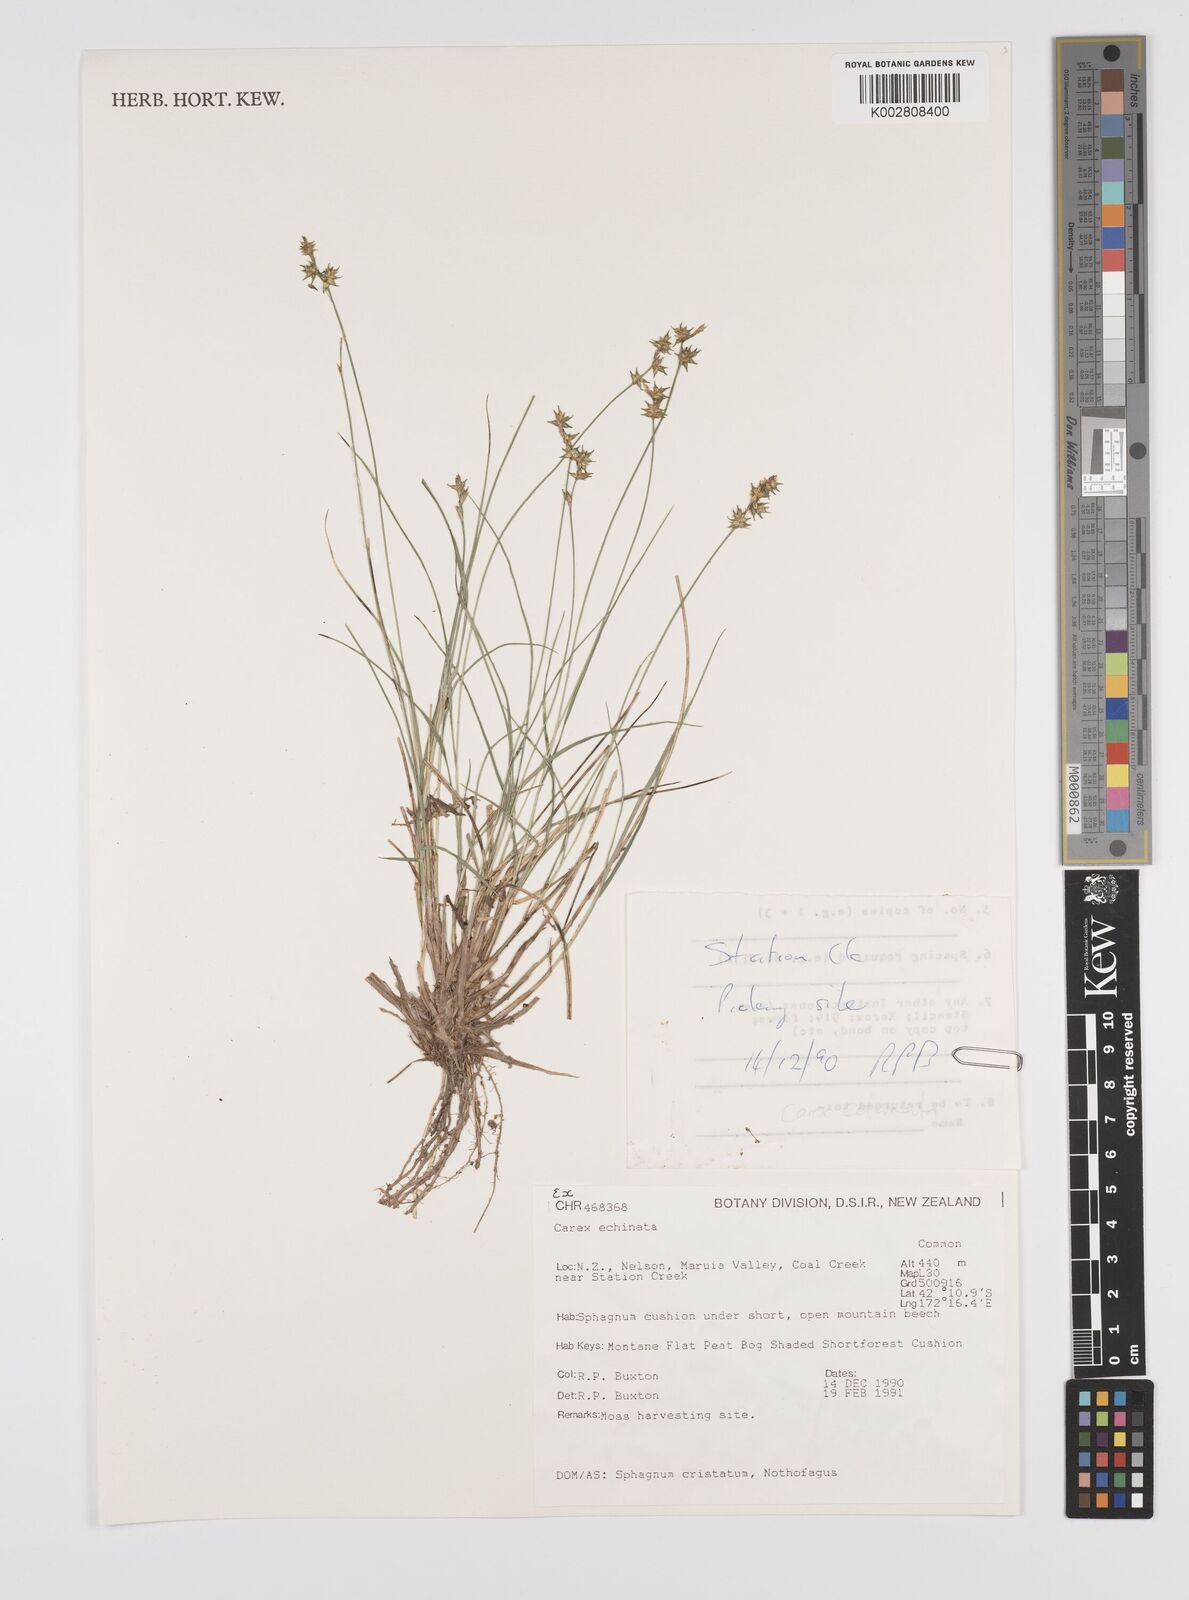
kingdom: Plantae
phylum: Tracheophyta
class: Liliopsida
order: Poales
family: Cyperaceae
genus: Carex
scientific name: Carex echinata
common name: Star sedge
